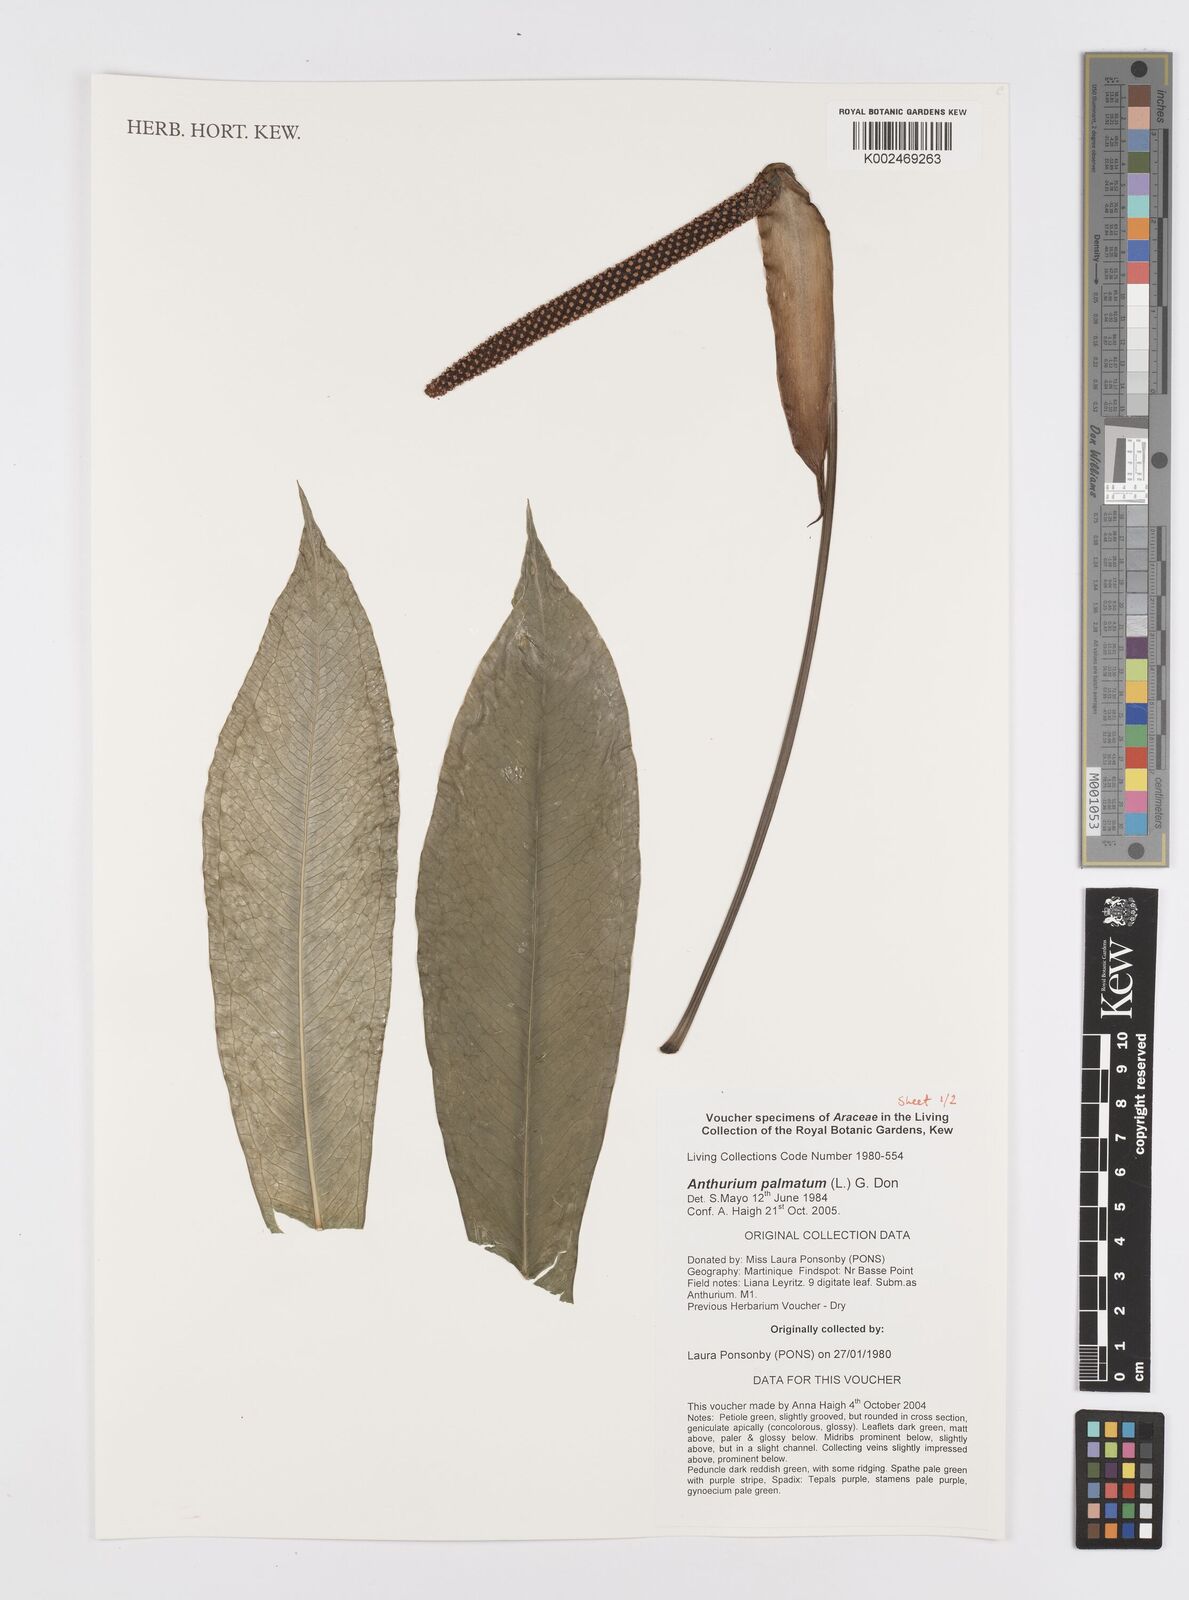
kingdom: Plantae
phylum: Tracheophyta
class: Liliopsida
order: Alismatales
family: Araceae
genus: Anthurium
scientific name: Anthurium palmatum
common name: Mibi
